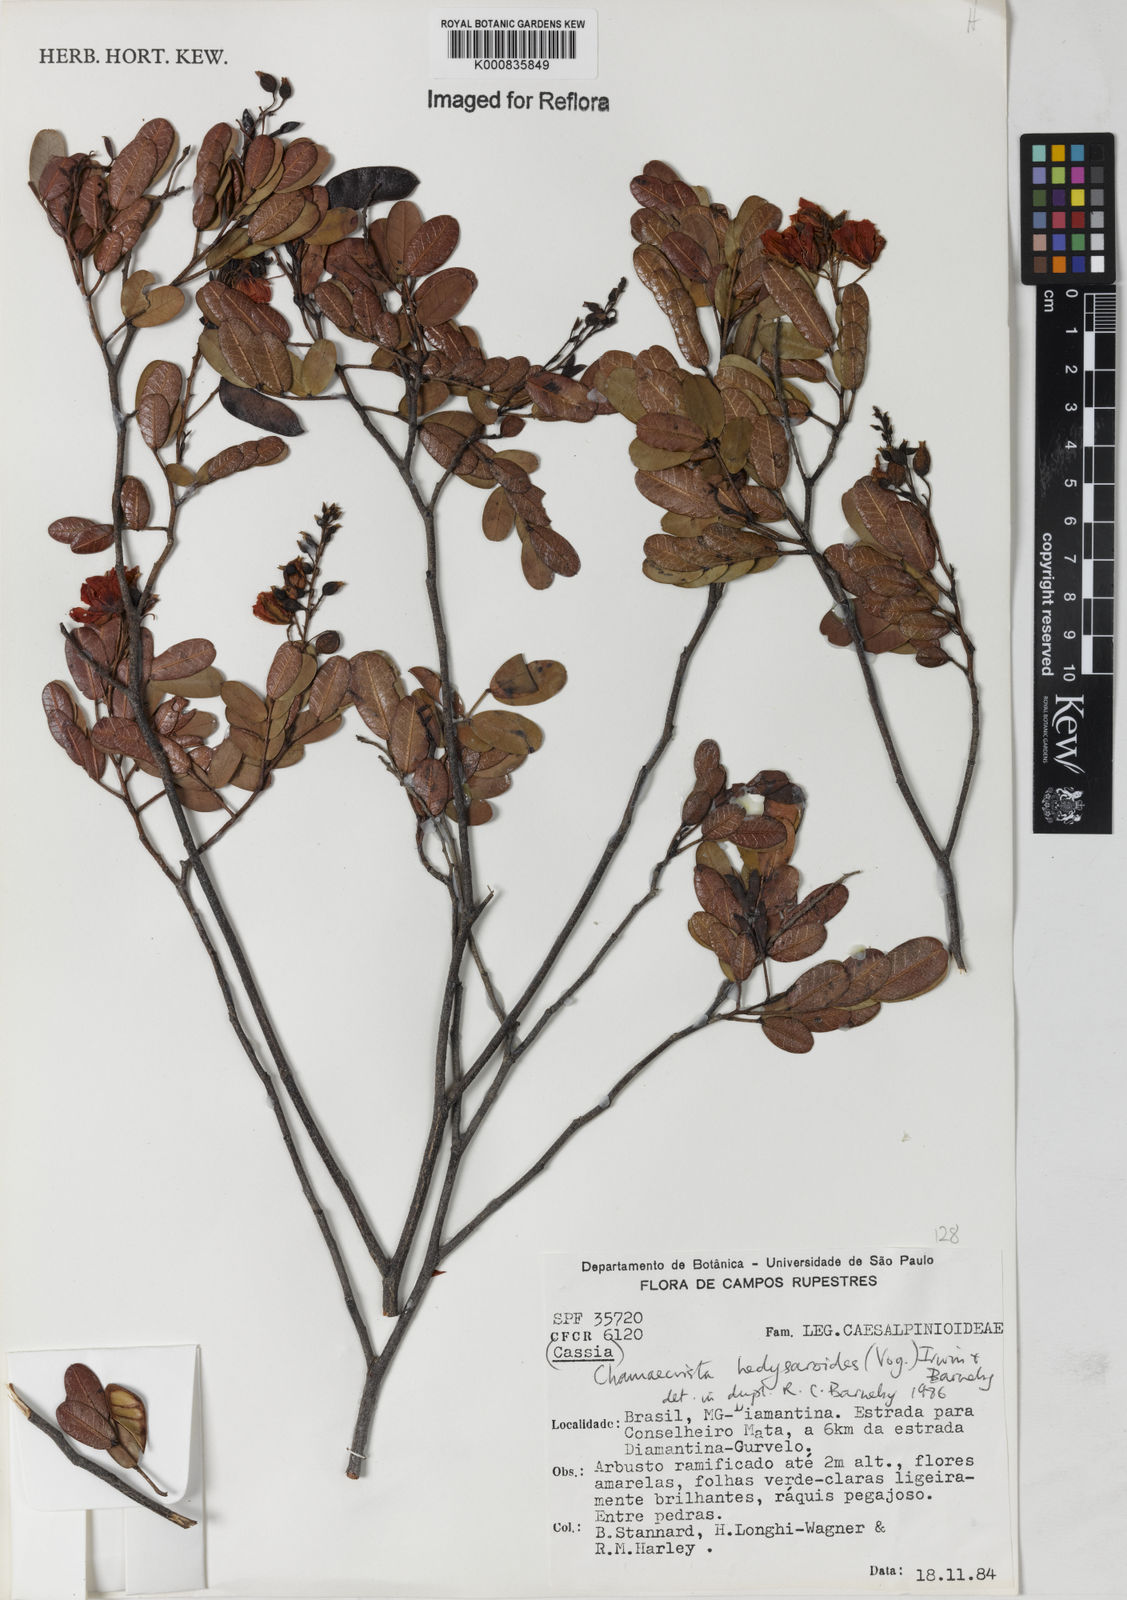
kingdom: Plantae
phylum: Tracheophyta
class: Magnoliopsida
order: Fabales
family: Fabaceae
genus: Chamaecrista
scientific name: Chamaecrista hedysaroides
